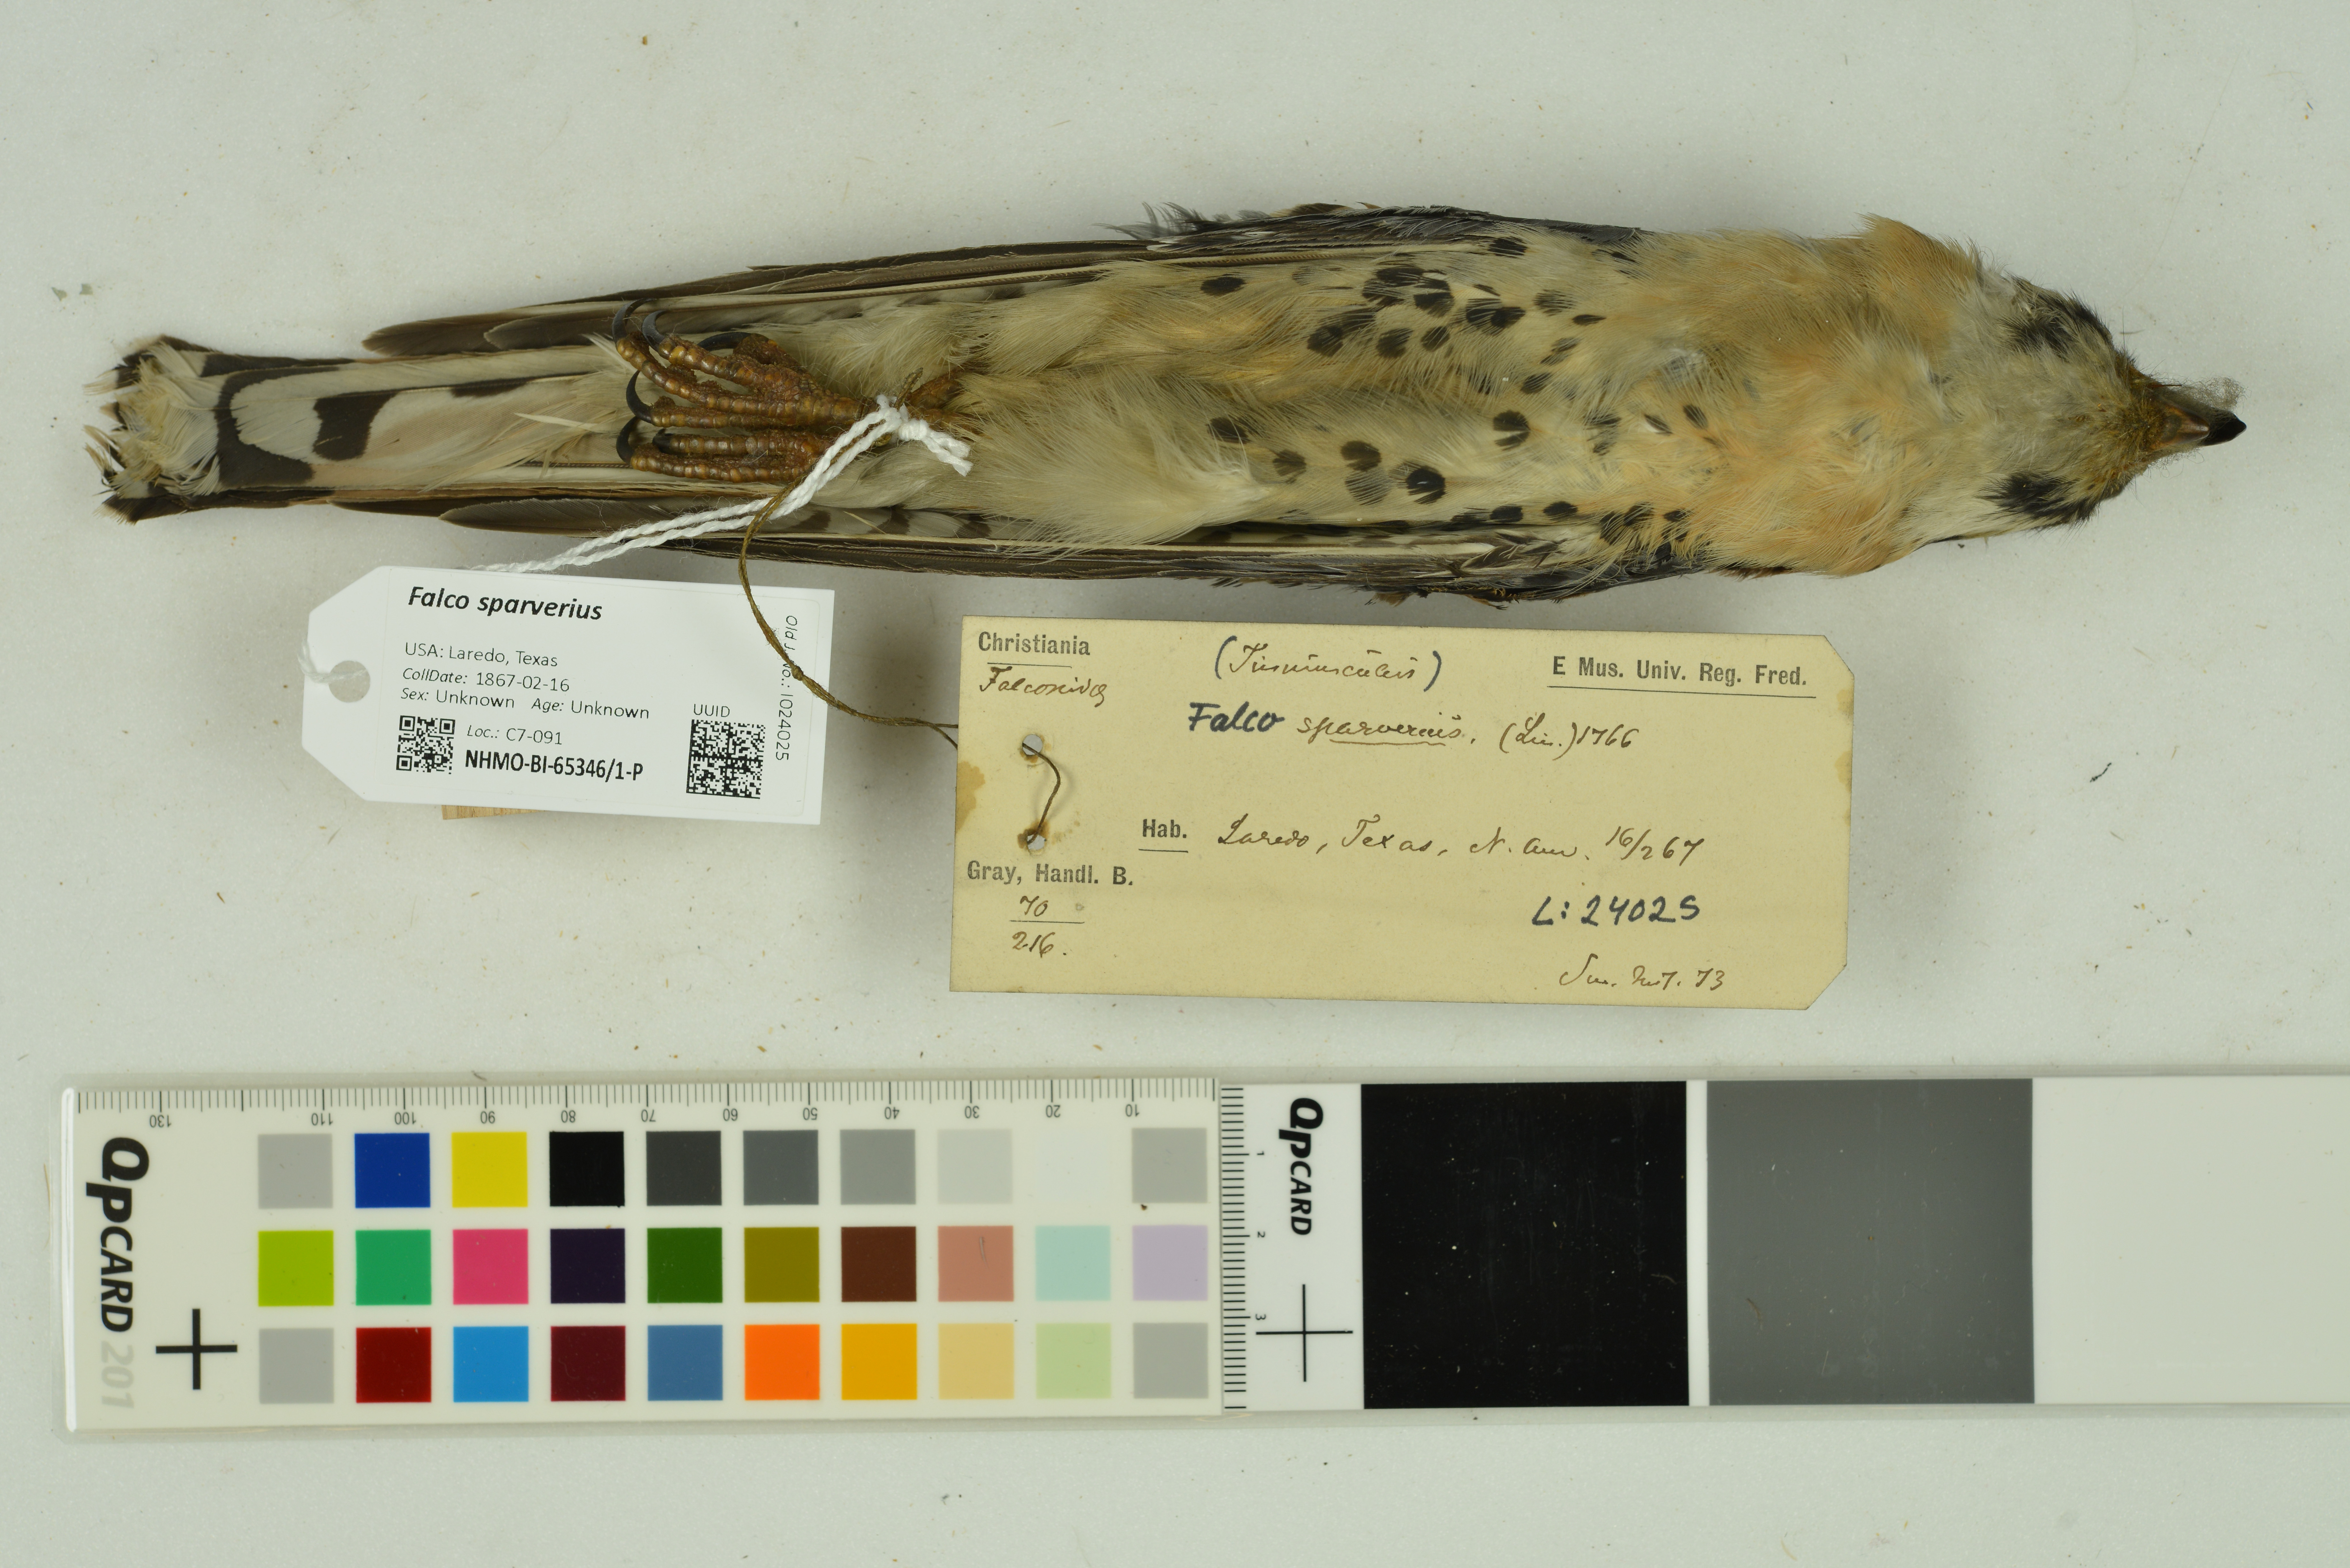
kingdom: Animalia
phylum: Chordata
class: Aves
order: Falconiformes
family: Falconidae
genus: Falco
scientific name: Falco sparverius
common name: American kestrel
